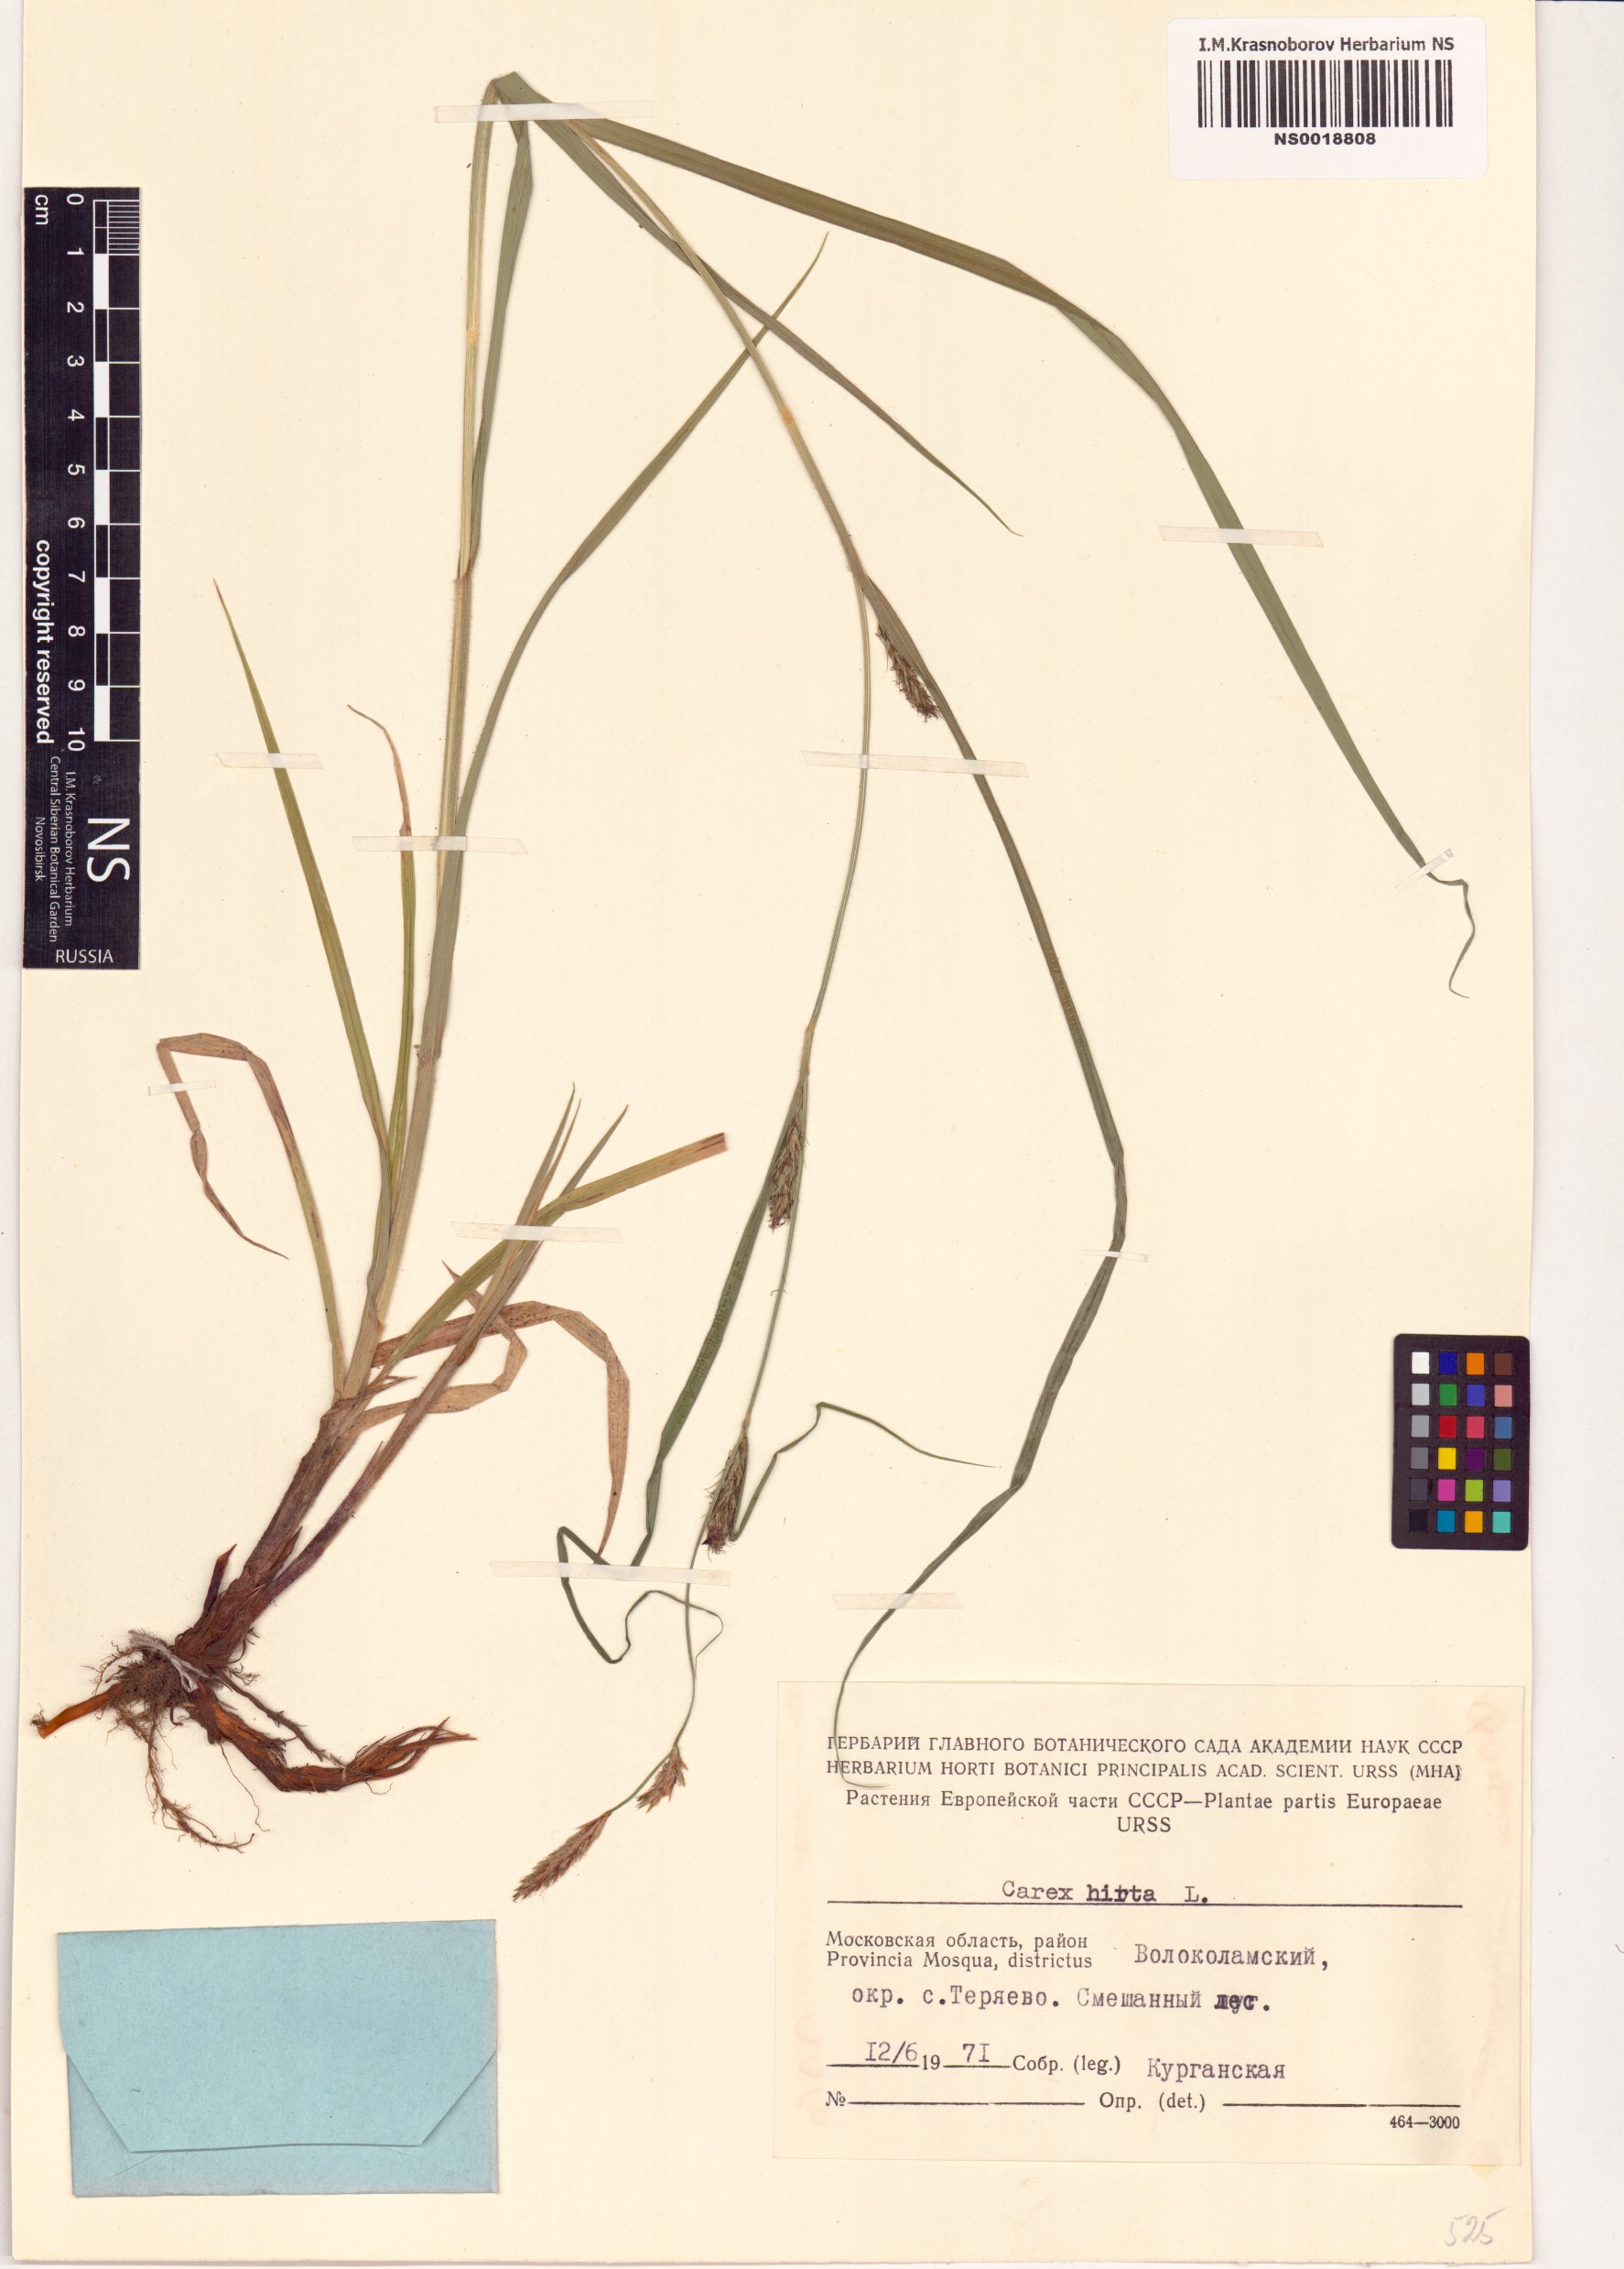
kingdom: Plantae
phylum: Tracheophyta
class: Liliopsida
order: Poales
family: Cyperaceae
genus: Carex
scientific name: Carex hirta
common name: Hairy sedge
